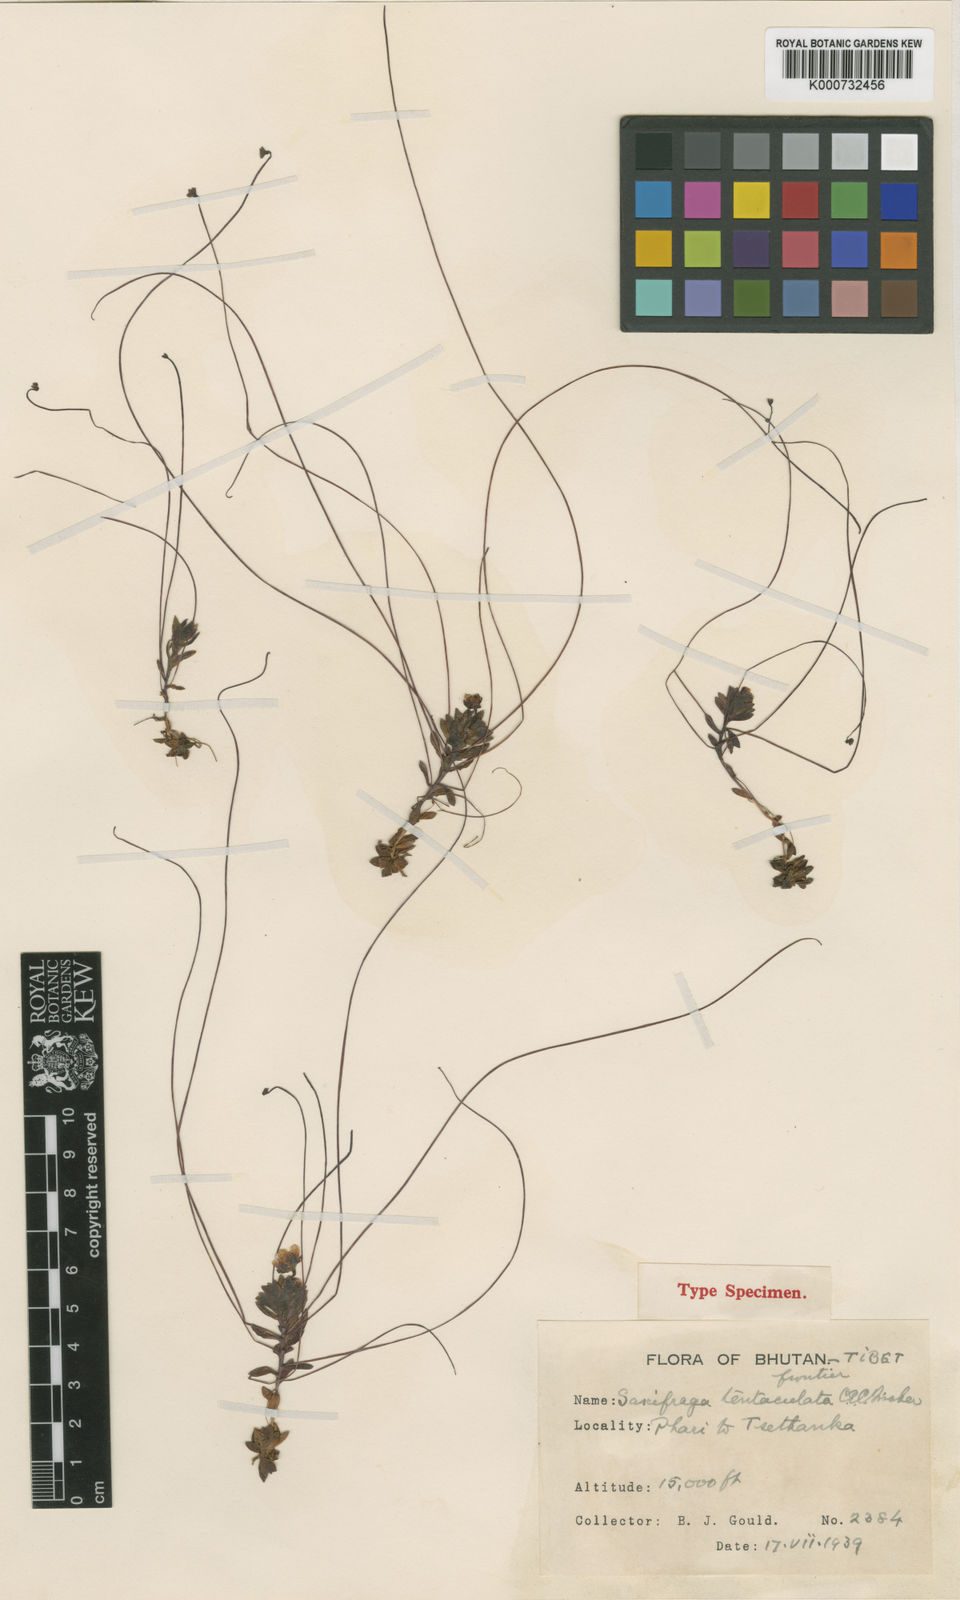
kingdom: Plantae
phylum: Tracheophyta
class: Magnoliopsida
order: Saxifragales
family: Saxifragaceae
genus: Saxifraga
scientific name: Saxifraga tentaculata
